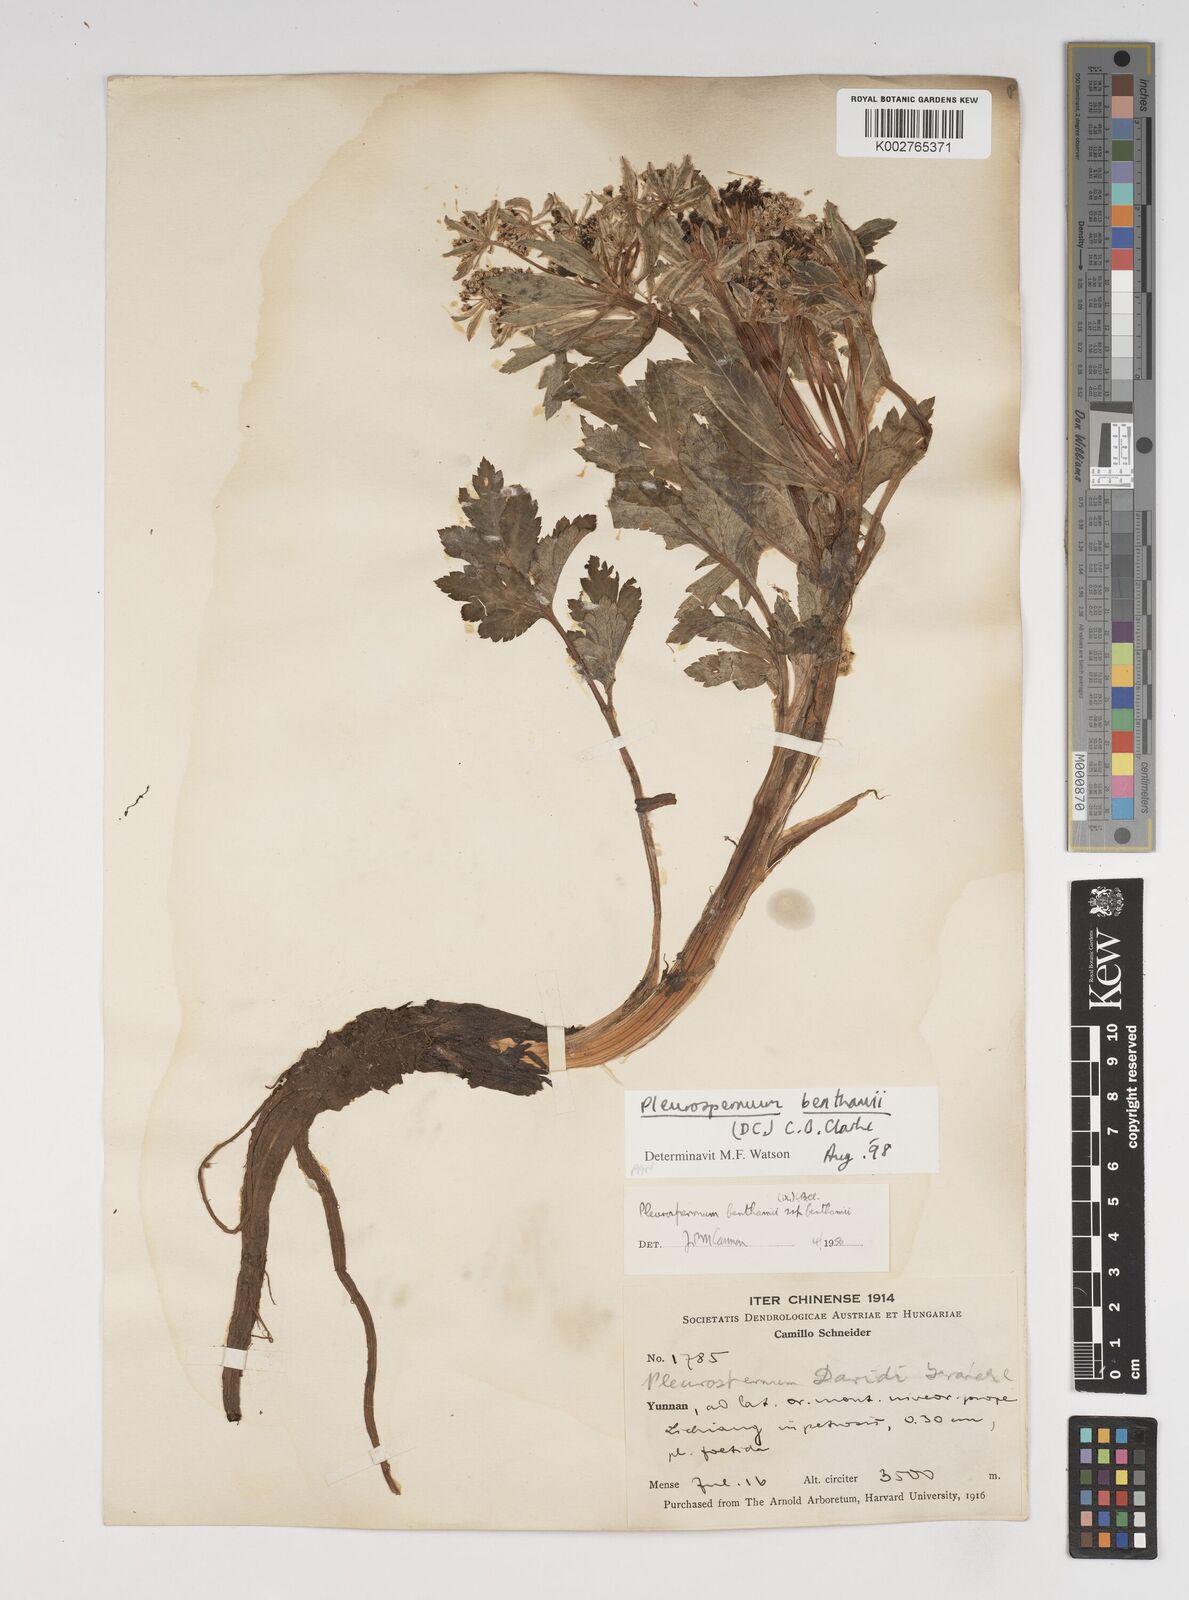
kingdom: Plantae
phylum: Tracheophyta
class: Magnoliopsida
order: Apiales
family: Apiaceae
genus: Hymenidium
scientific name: Hymenidium benthamii
